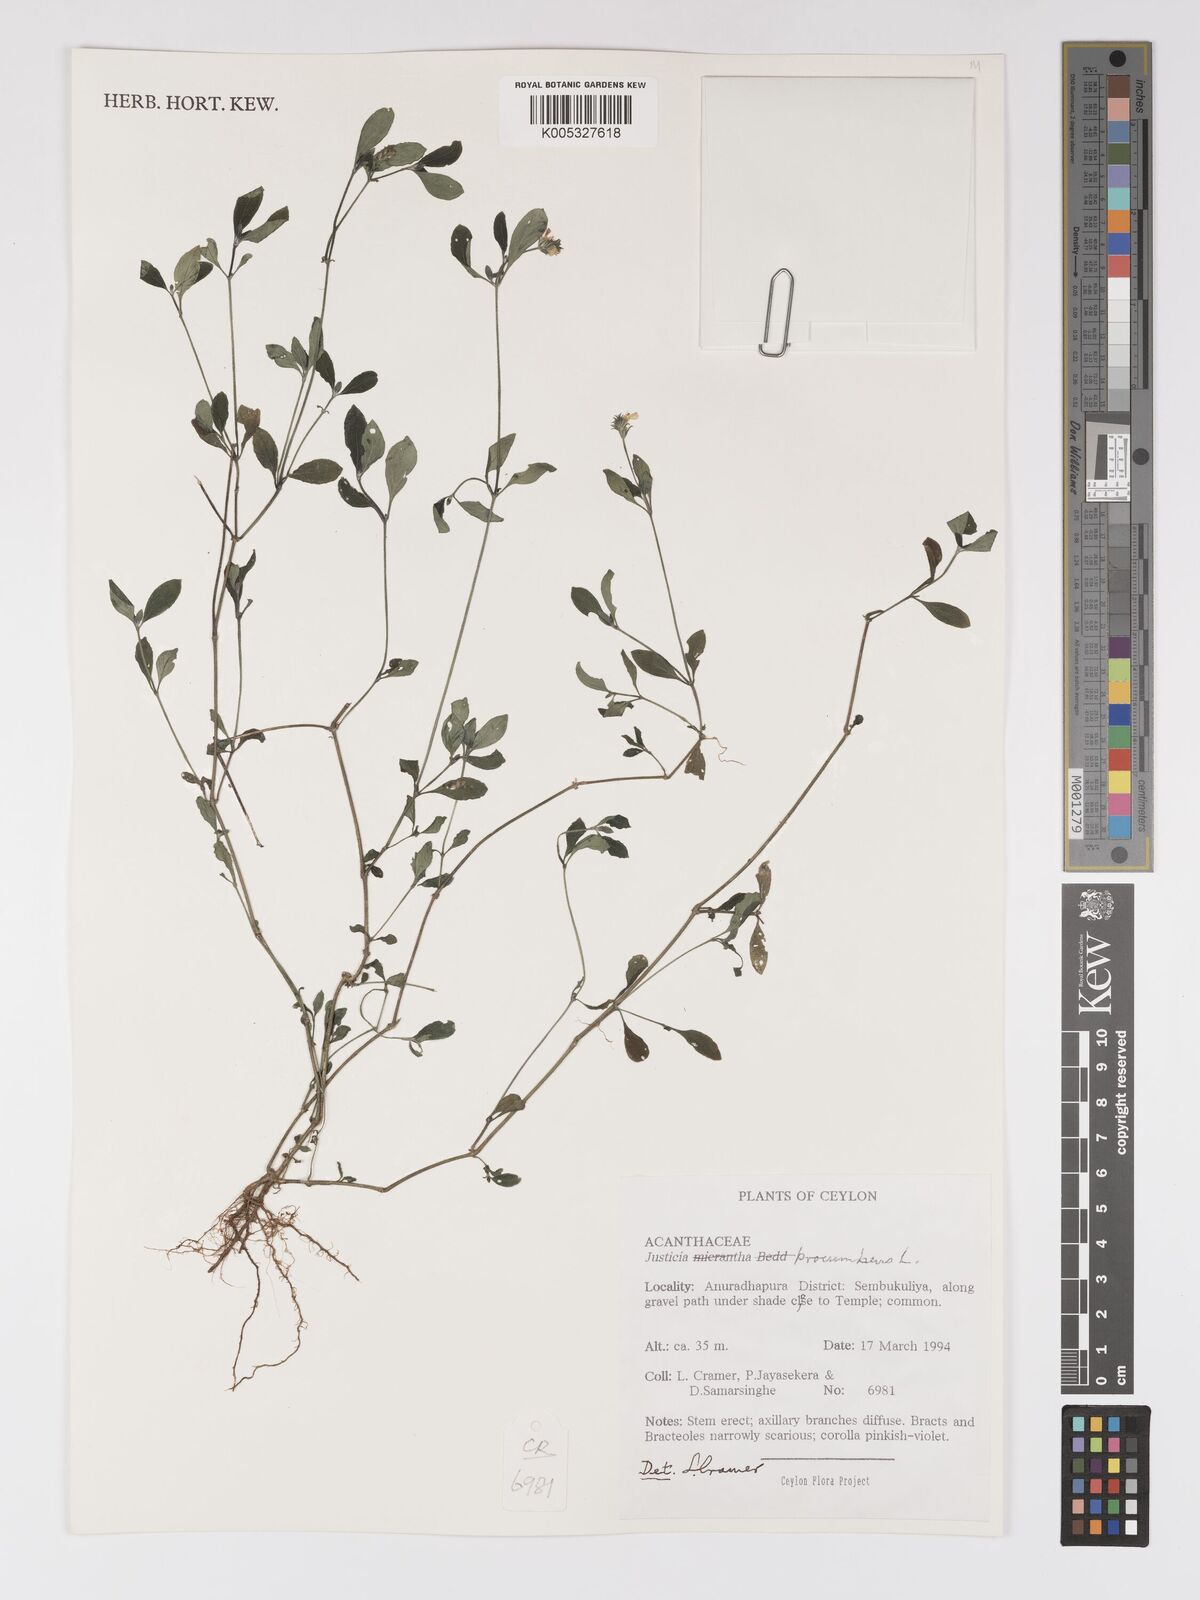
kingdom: Plantae
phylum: Tracheophyta
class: Magnoliopsida
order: Lamiales
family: Acanthaceae
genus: Rostellularia
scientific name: Rostellularia procumbens
